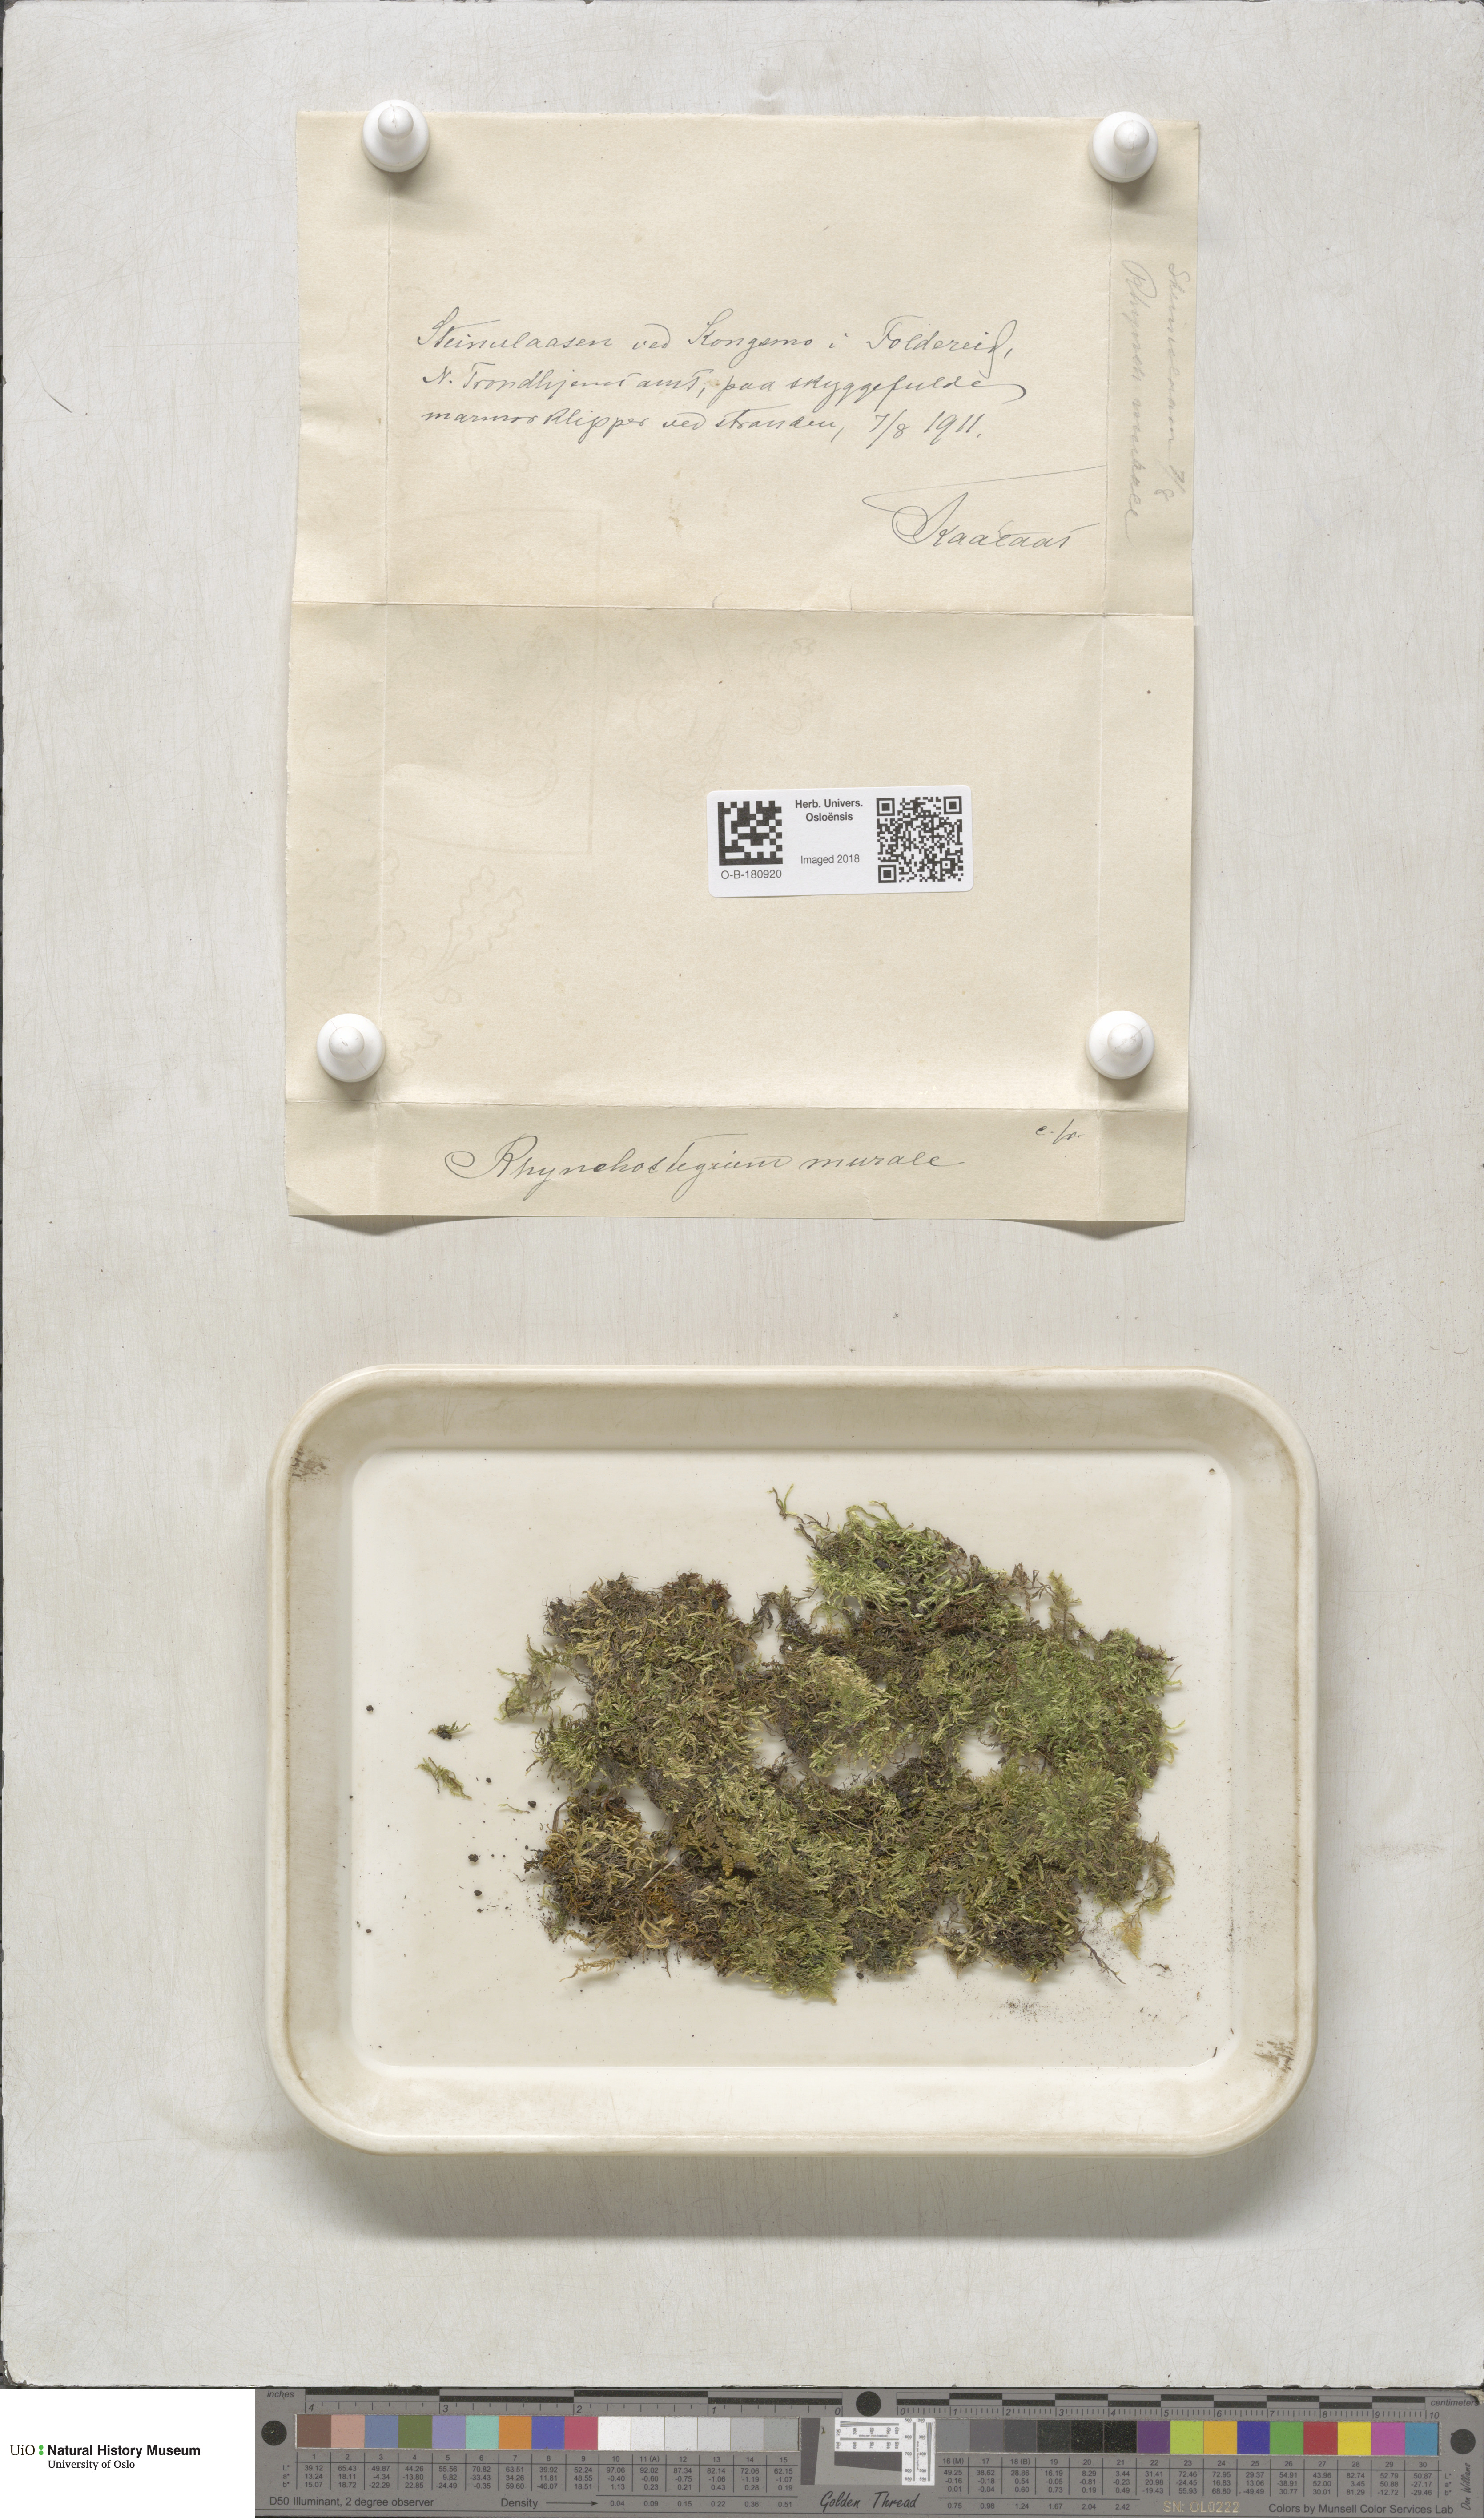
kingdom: Plantae
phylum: Bryophyta
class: Bryopsida
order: Hypnales
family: Brachytheciaceae
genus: Rhynchostegium
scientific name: Rhynchostegium murale
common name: Wall feather-moss
